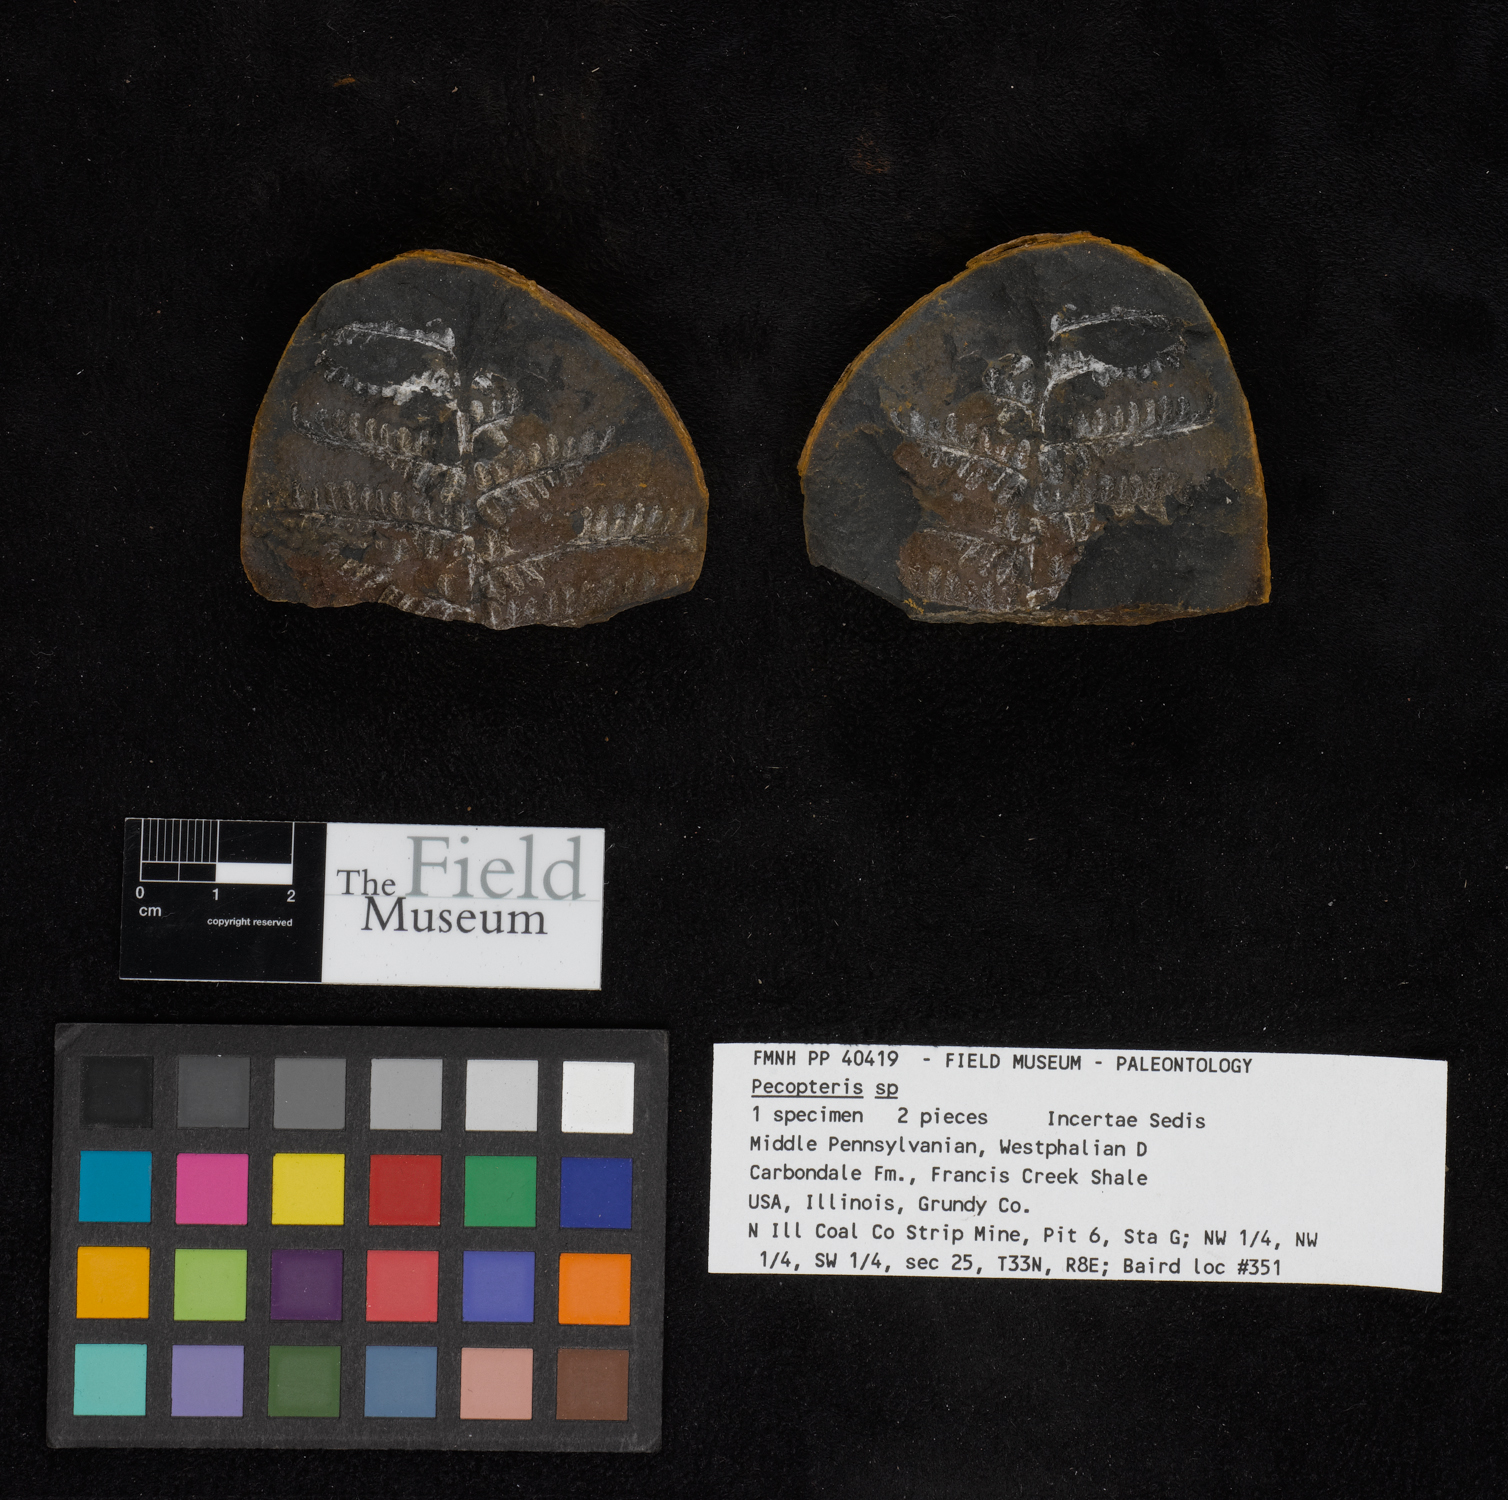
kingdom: Plantae
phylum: Tracheophyta
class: Polypodiopsida
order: Marattiales
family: Asterothecaceae
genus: Pecopteris
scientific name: Pecopteris
